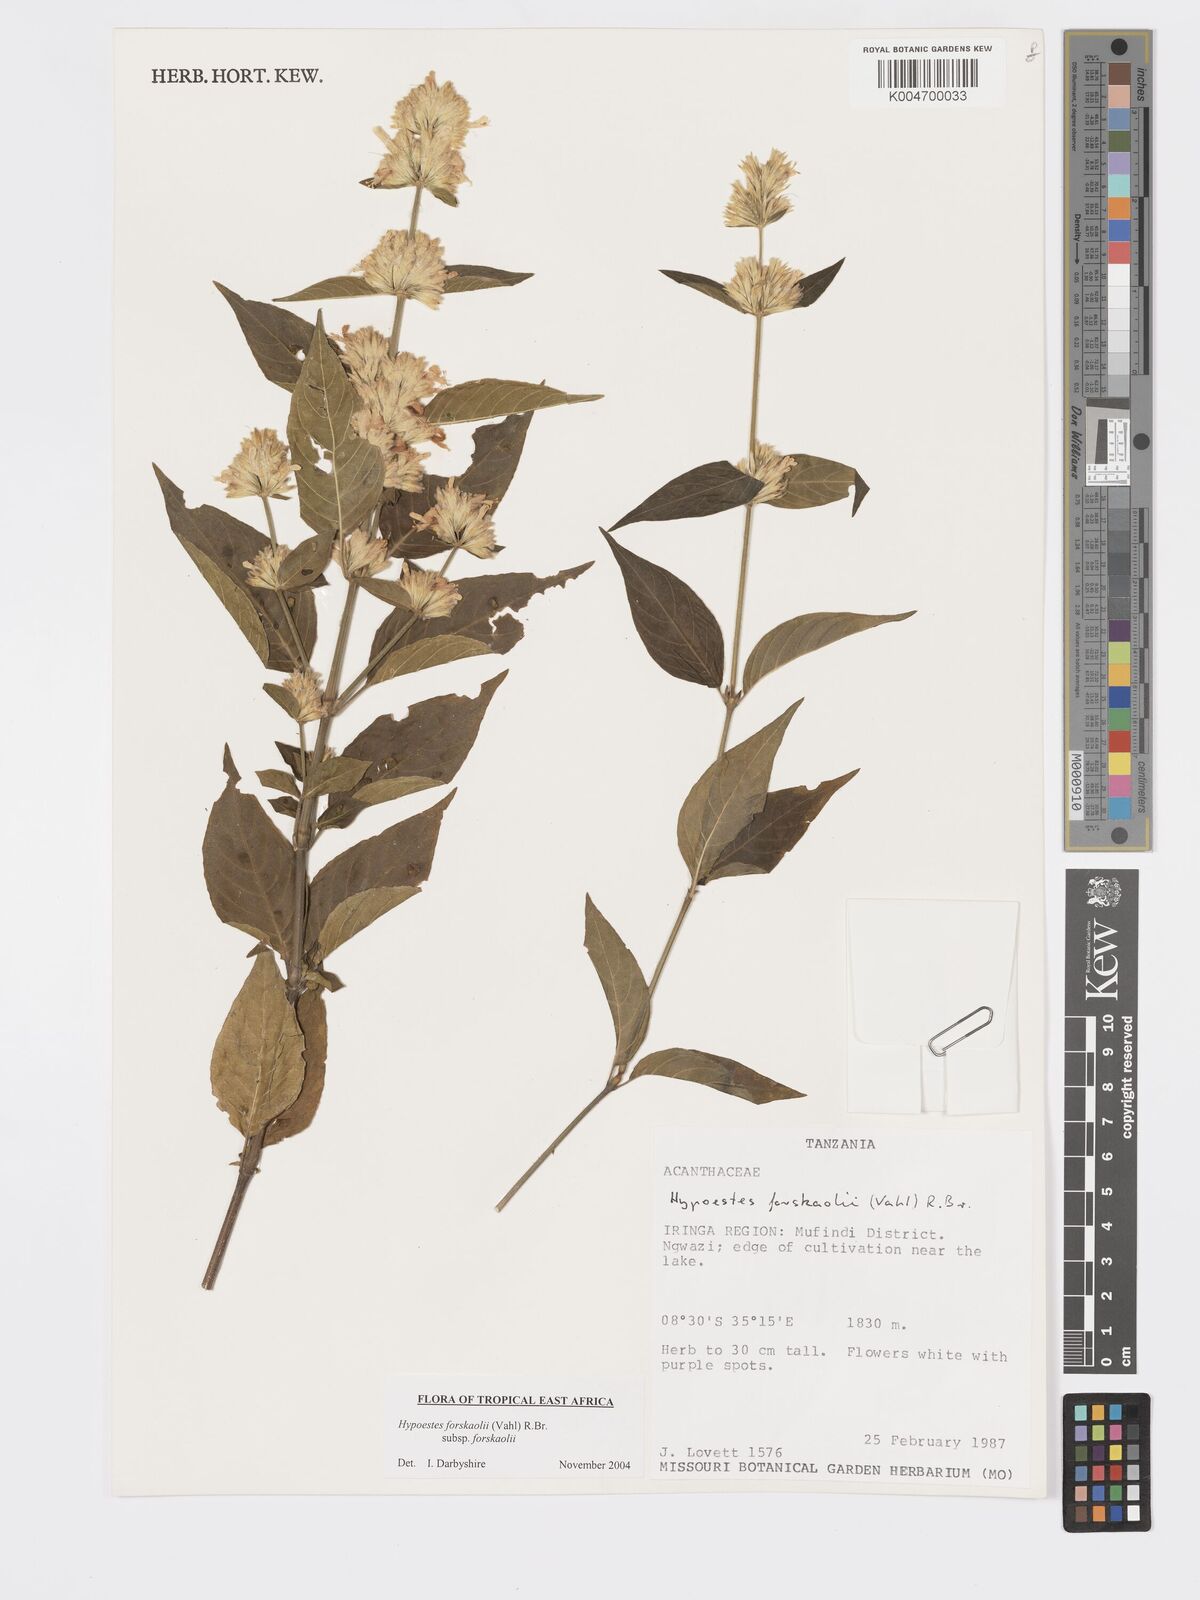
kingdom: Plantae
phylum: Tracheophyta
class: Magnoliopsida
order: Lamiales
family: Acanthaceae
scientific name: Acanthaceae
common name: Acanthaceae
